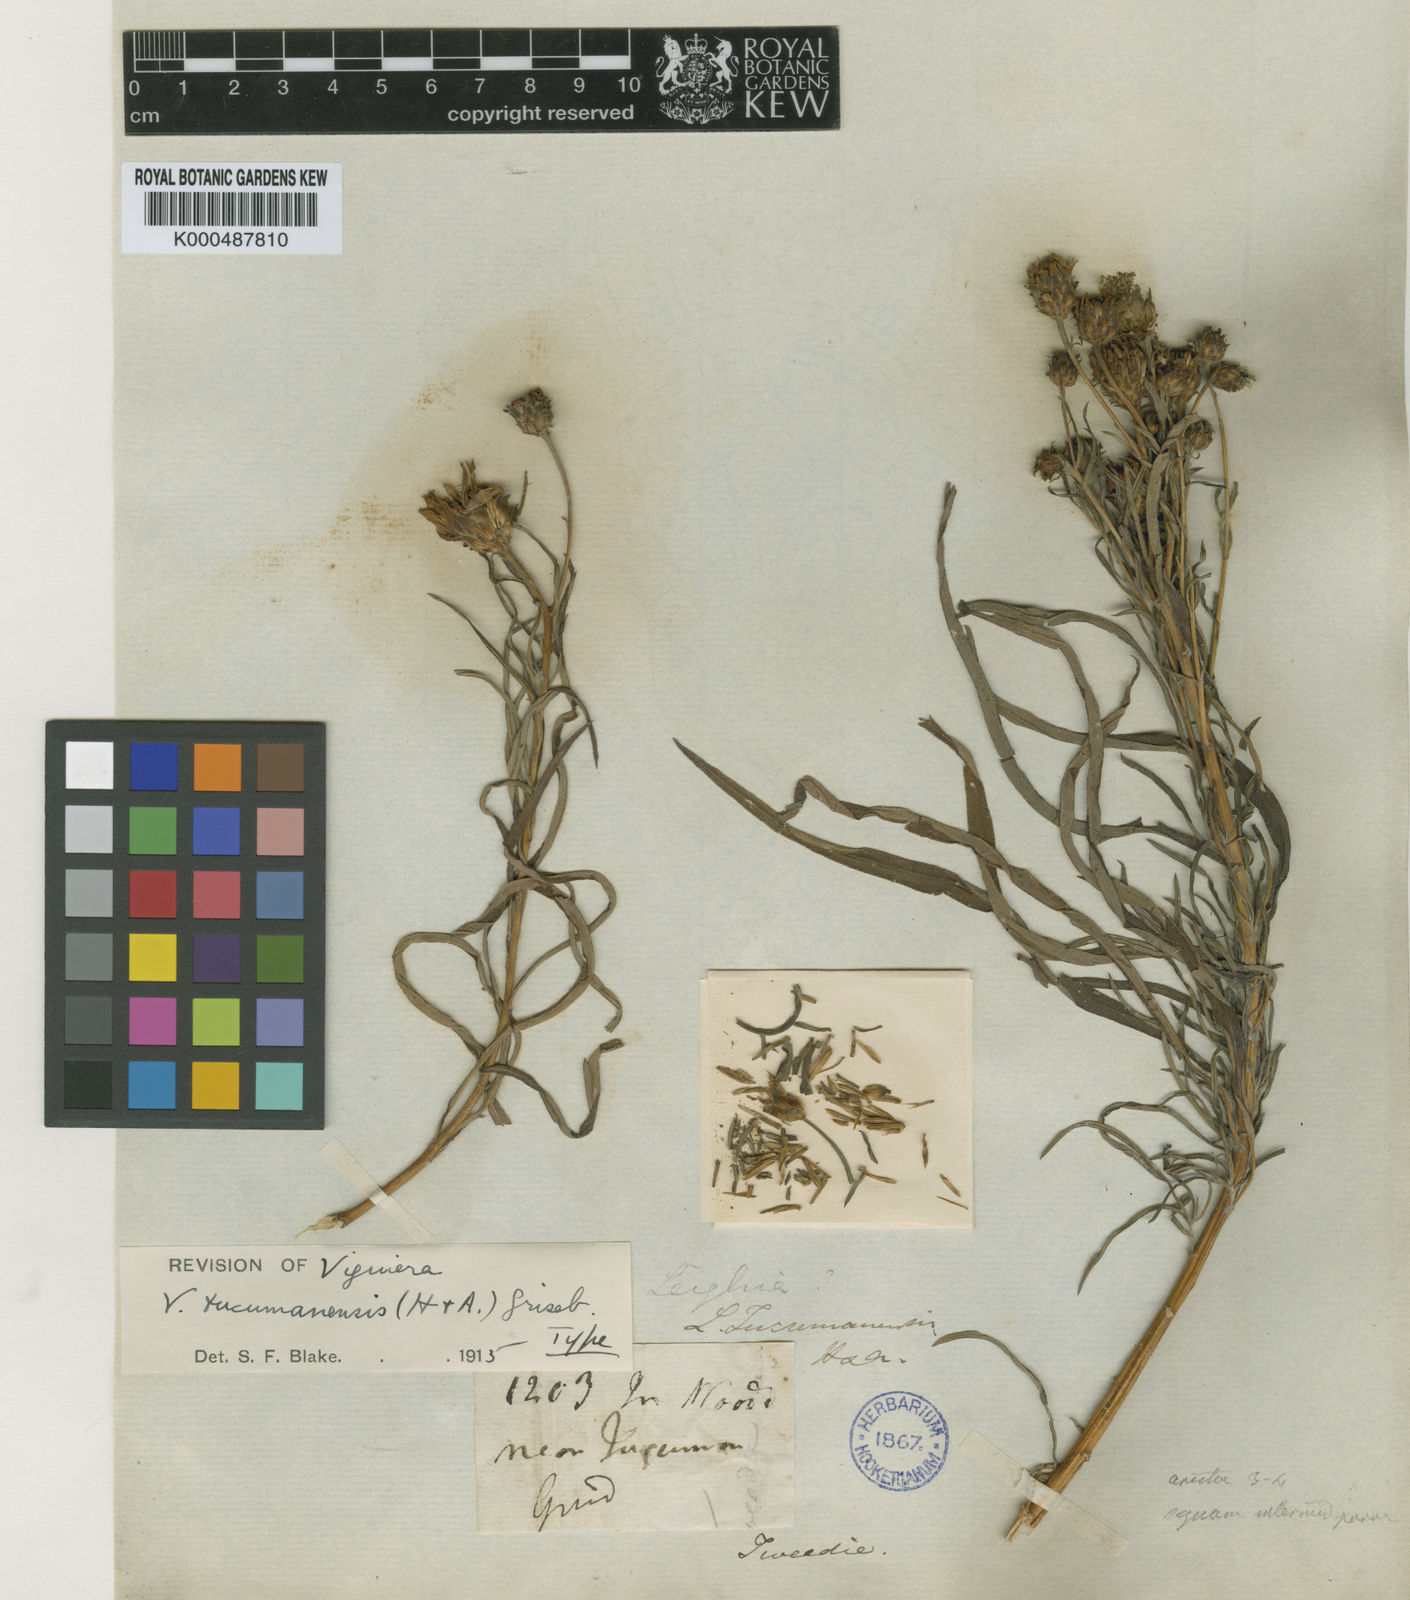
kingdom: Plantae
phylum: Tracheophyta
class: Magnoliopsida
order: Asterales
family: Asteraceae
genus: Aldama
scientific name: Aldama tucumanensis
